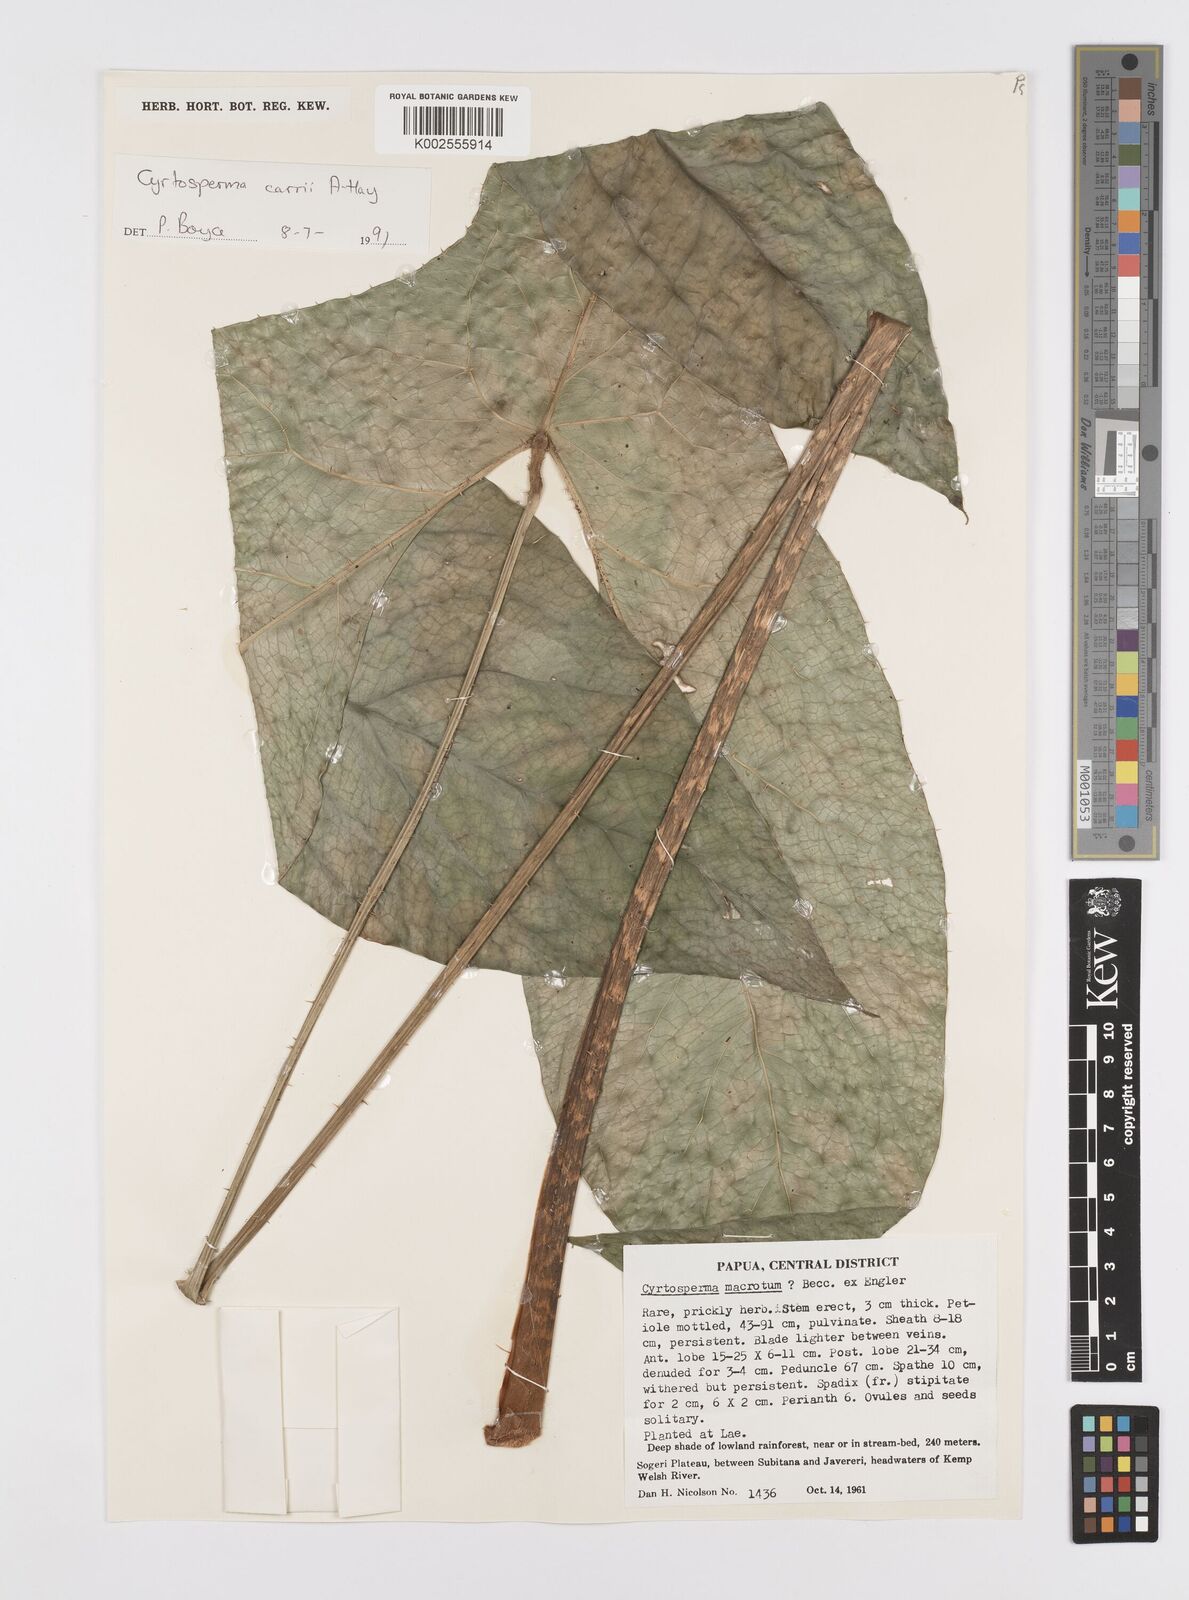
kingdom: Plantae
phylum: Tracheophyta
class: Liliopsida
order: Alismatales
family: Araceae
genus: Cyrtosperma
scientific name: Cyrtosperma carrii
